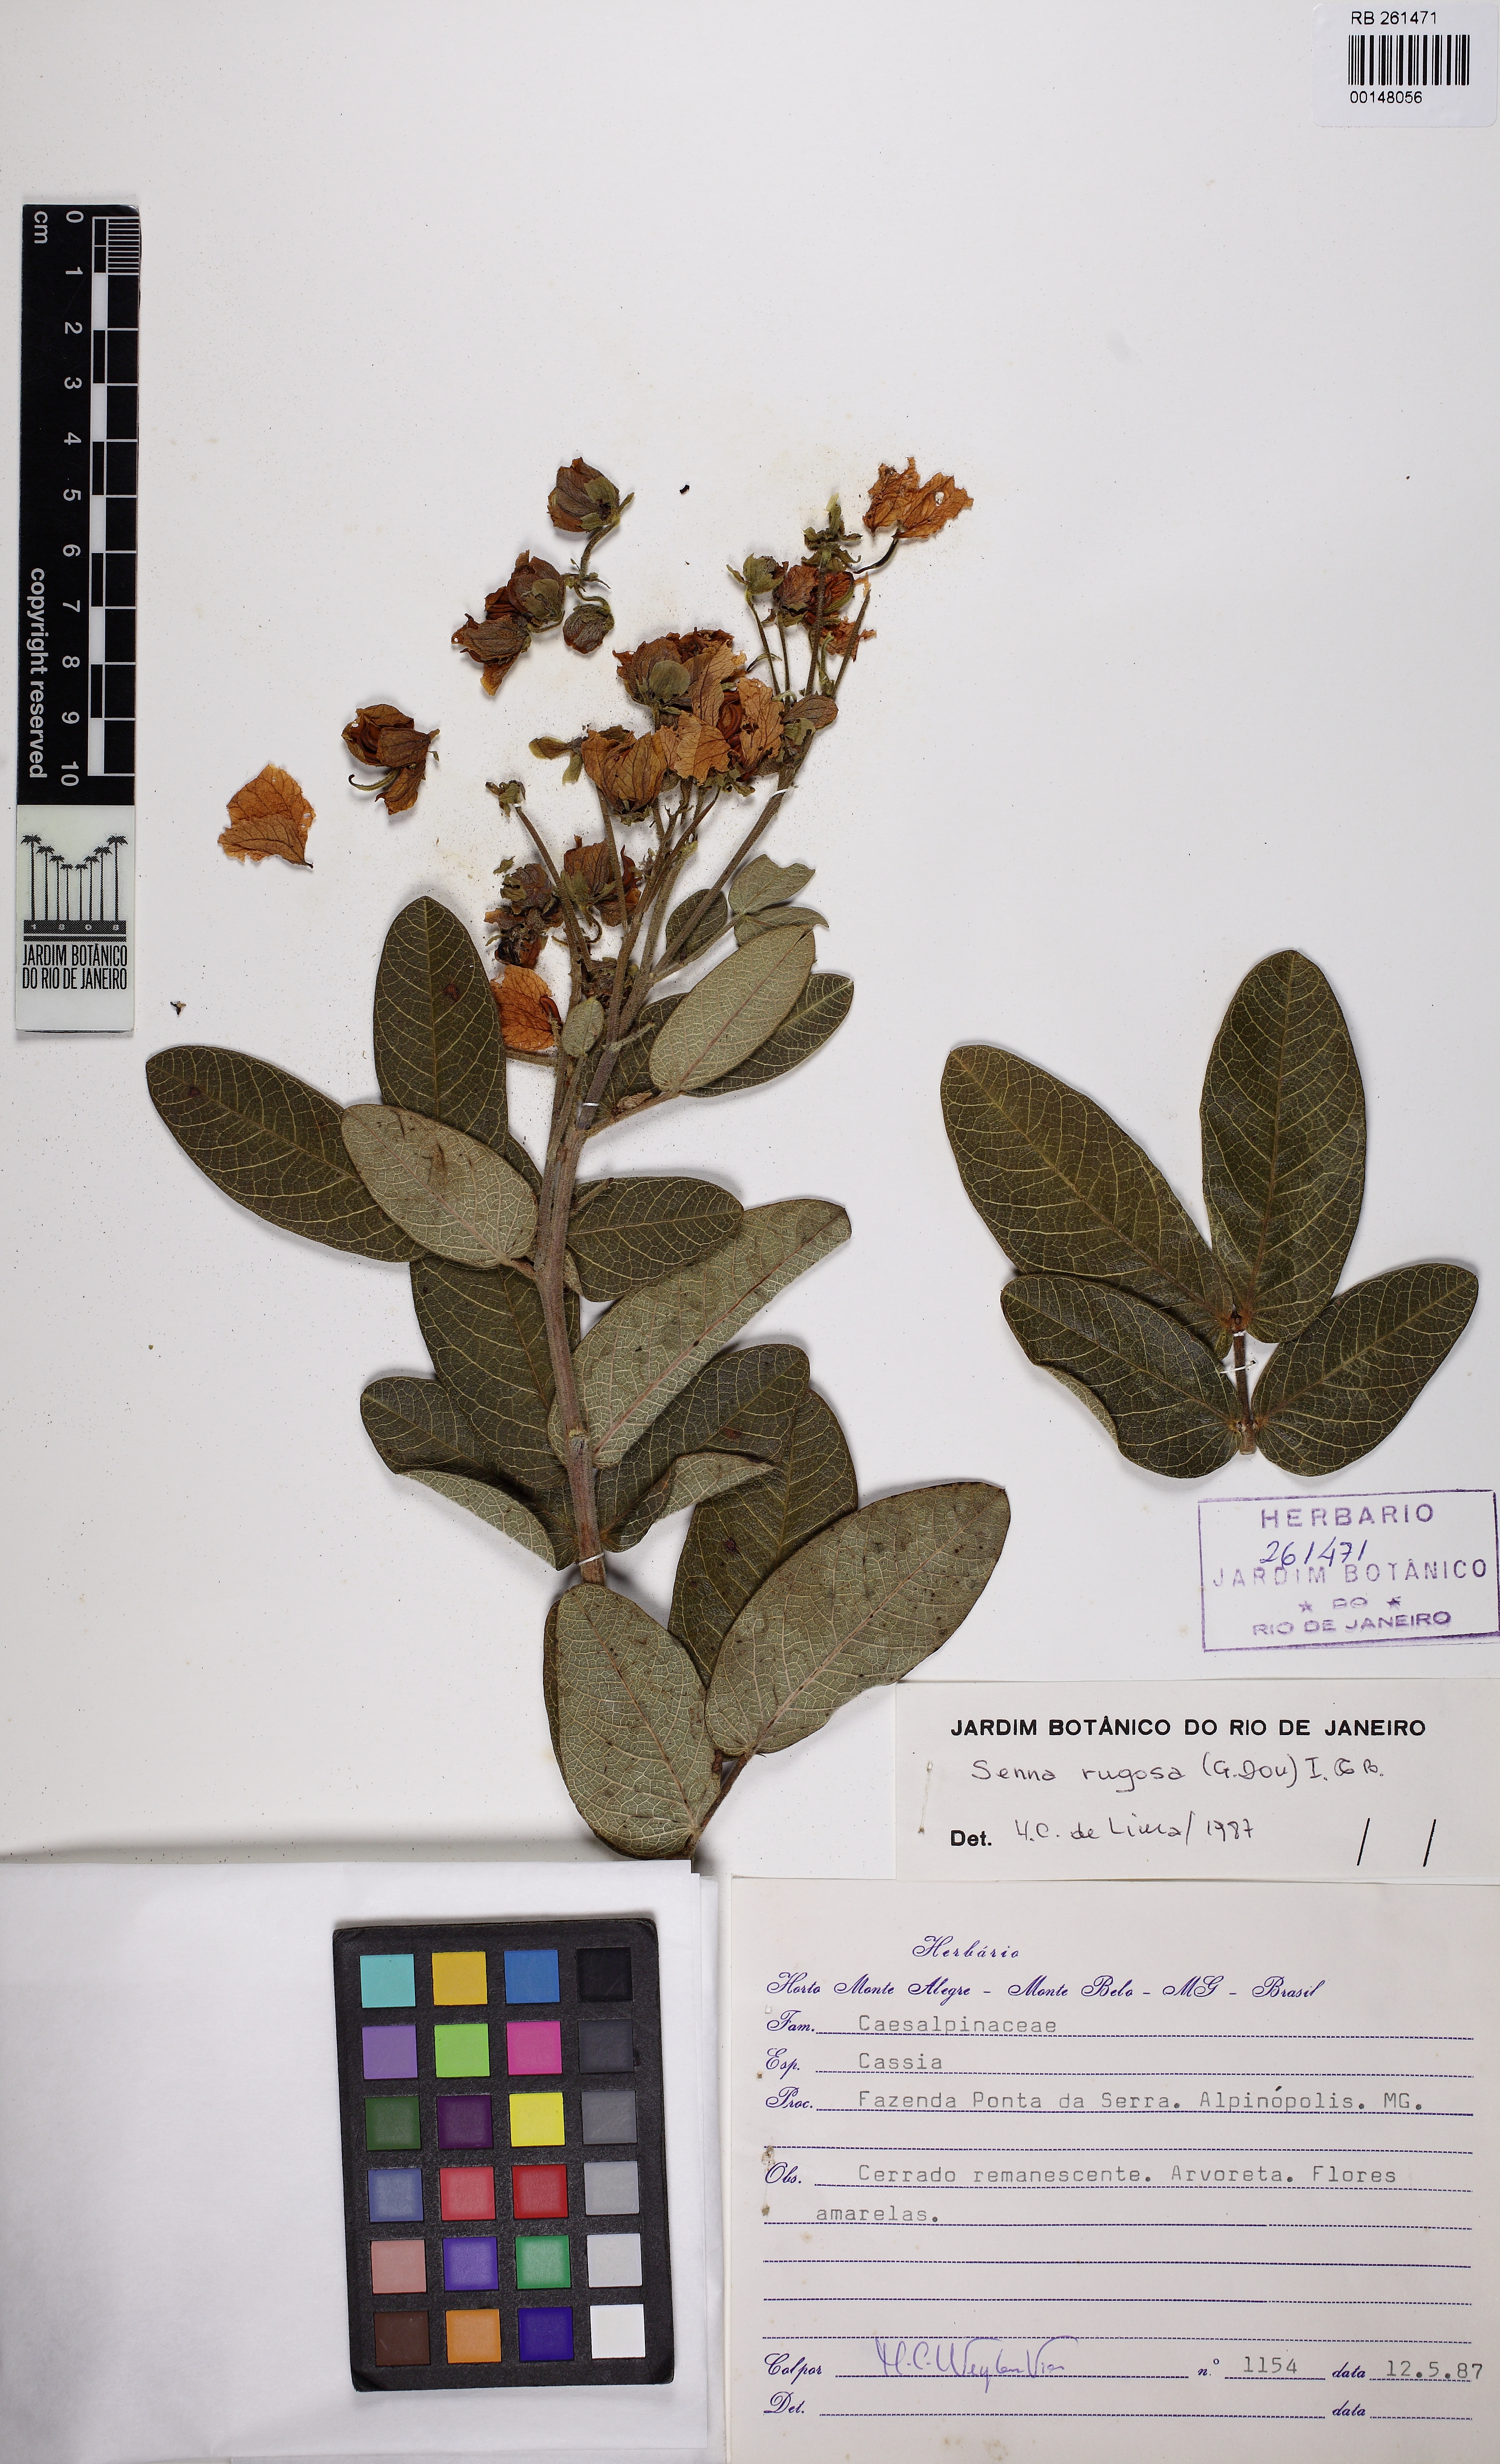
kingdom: Plantae
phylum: Tracheophyta
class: Magnoliopsida
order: Fabales
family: Fabaceae
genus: Senna
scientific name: Senna rugosa
